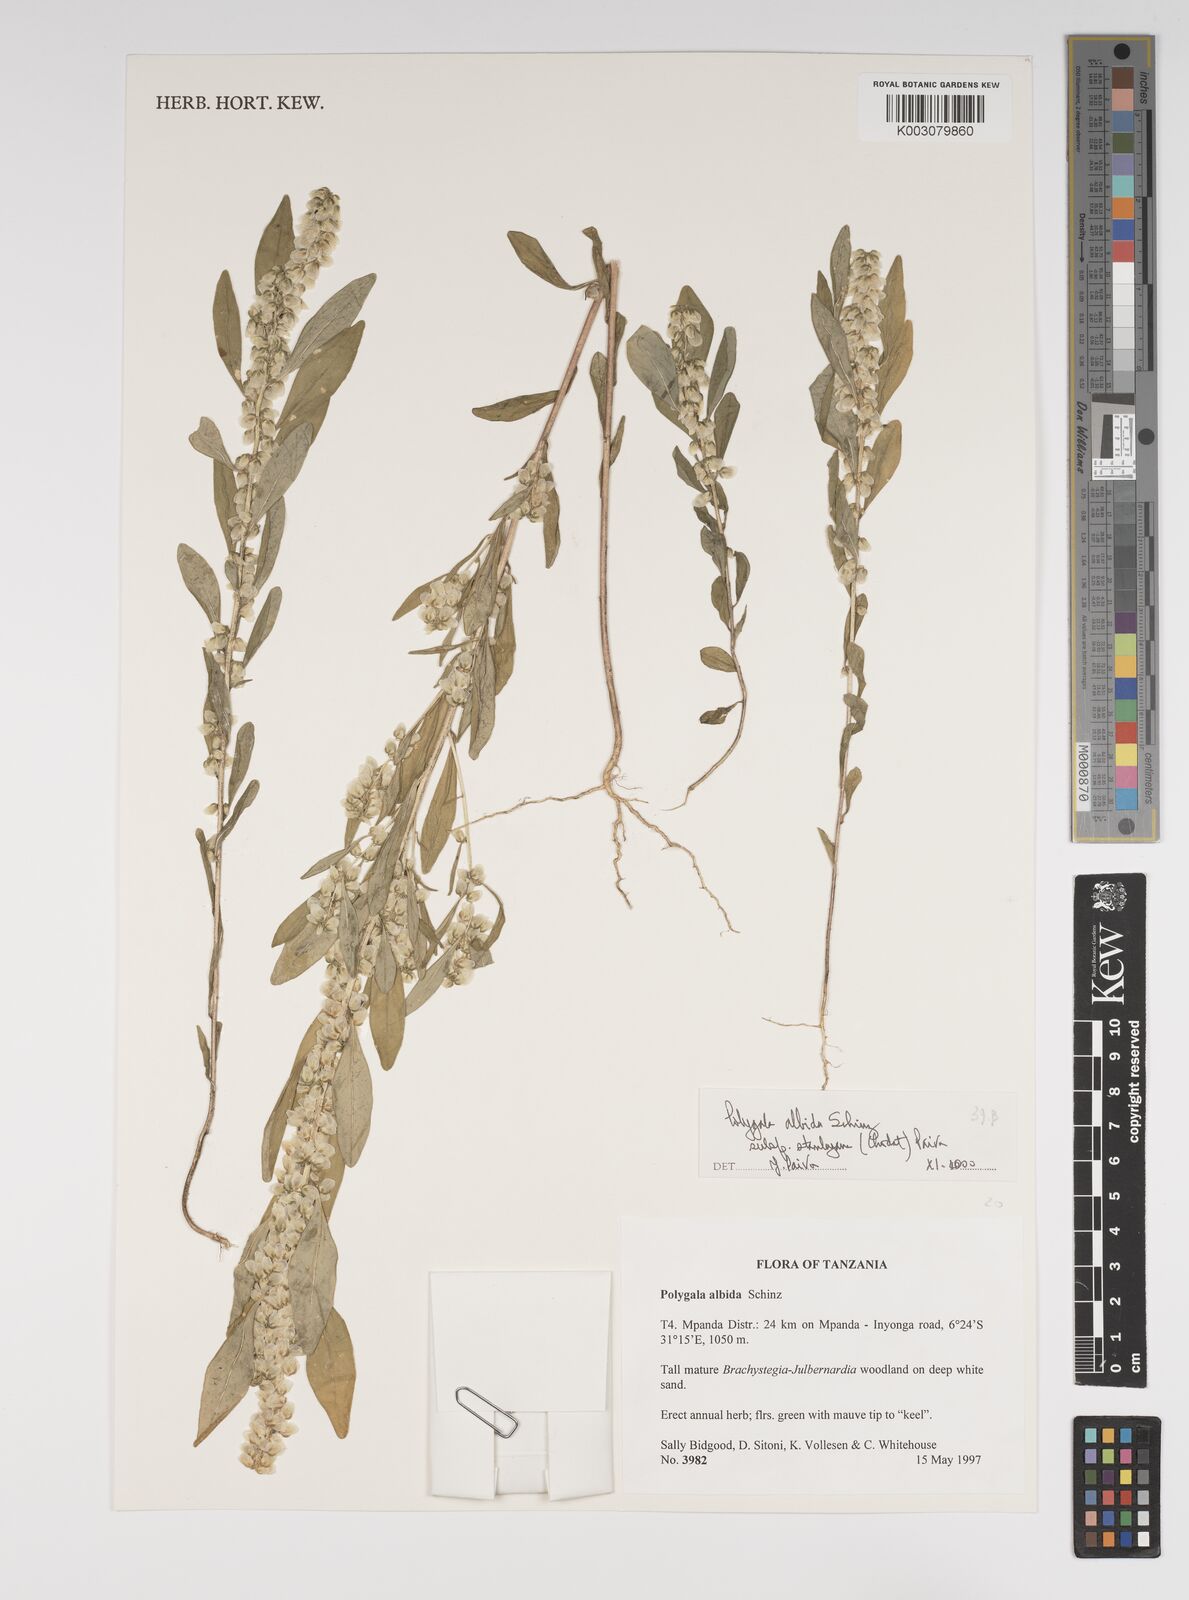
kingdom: Plantae
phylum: Tracheophyta
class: Magnoliopsida
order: Fabales
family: Polygalaceae
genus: Polygala
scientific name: Polygala albida
